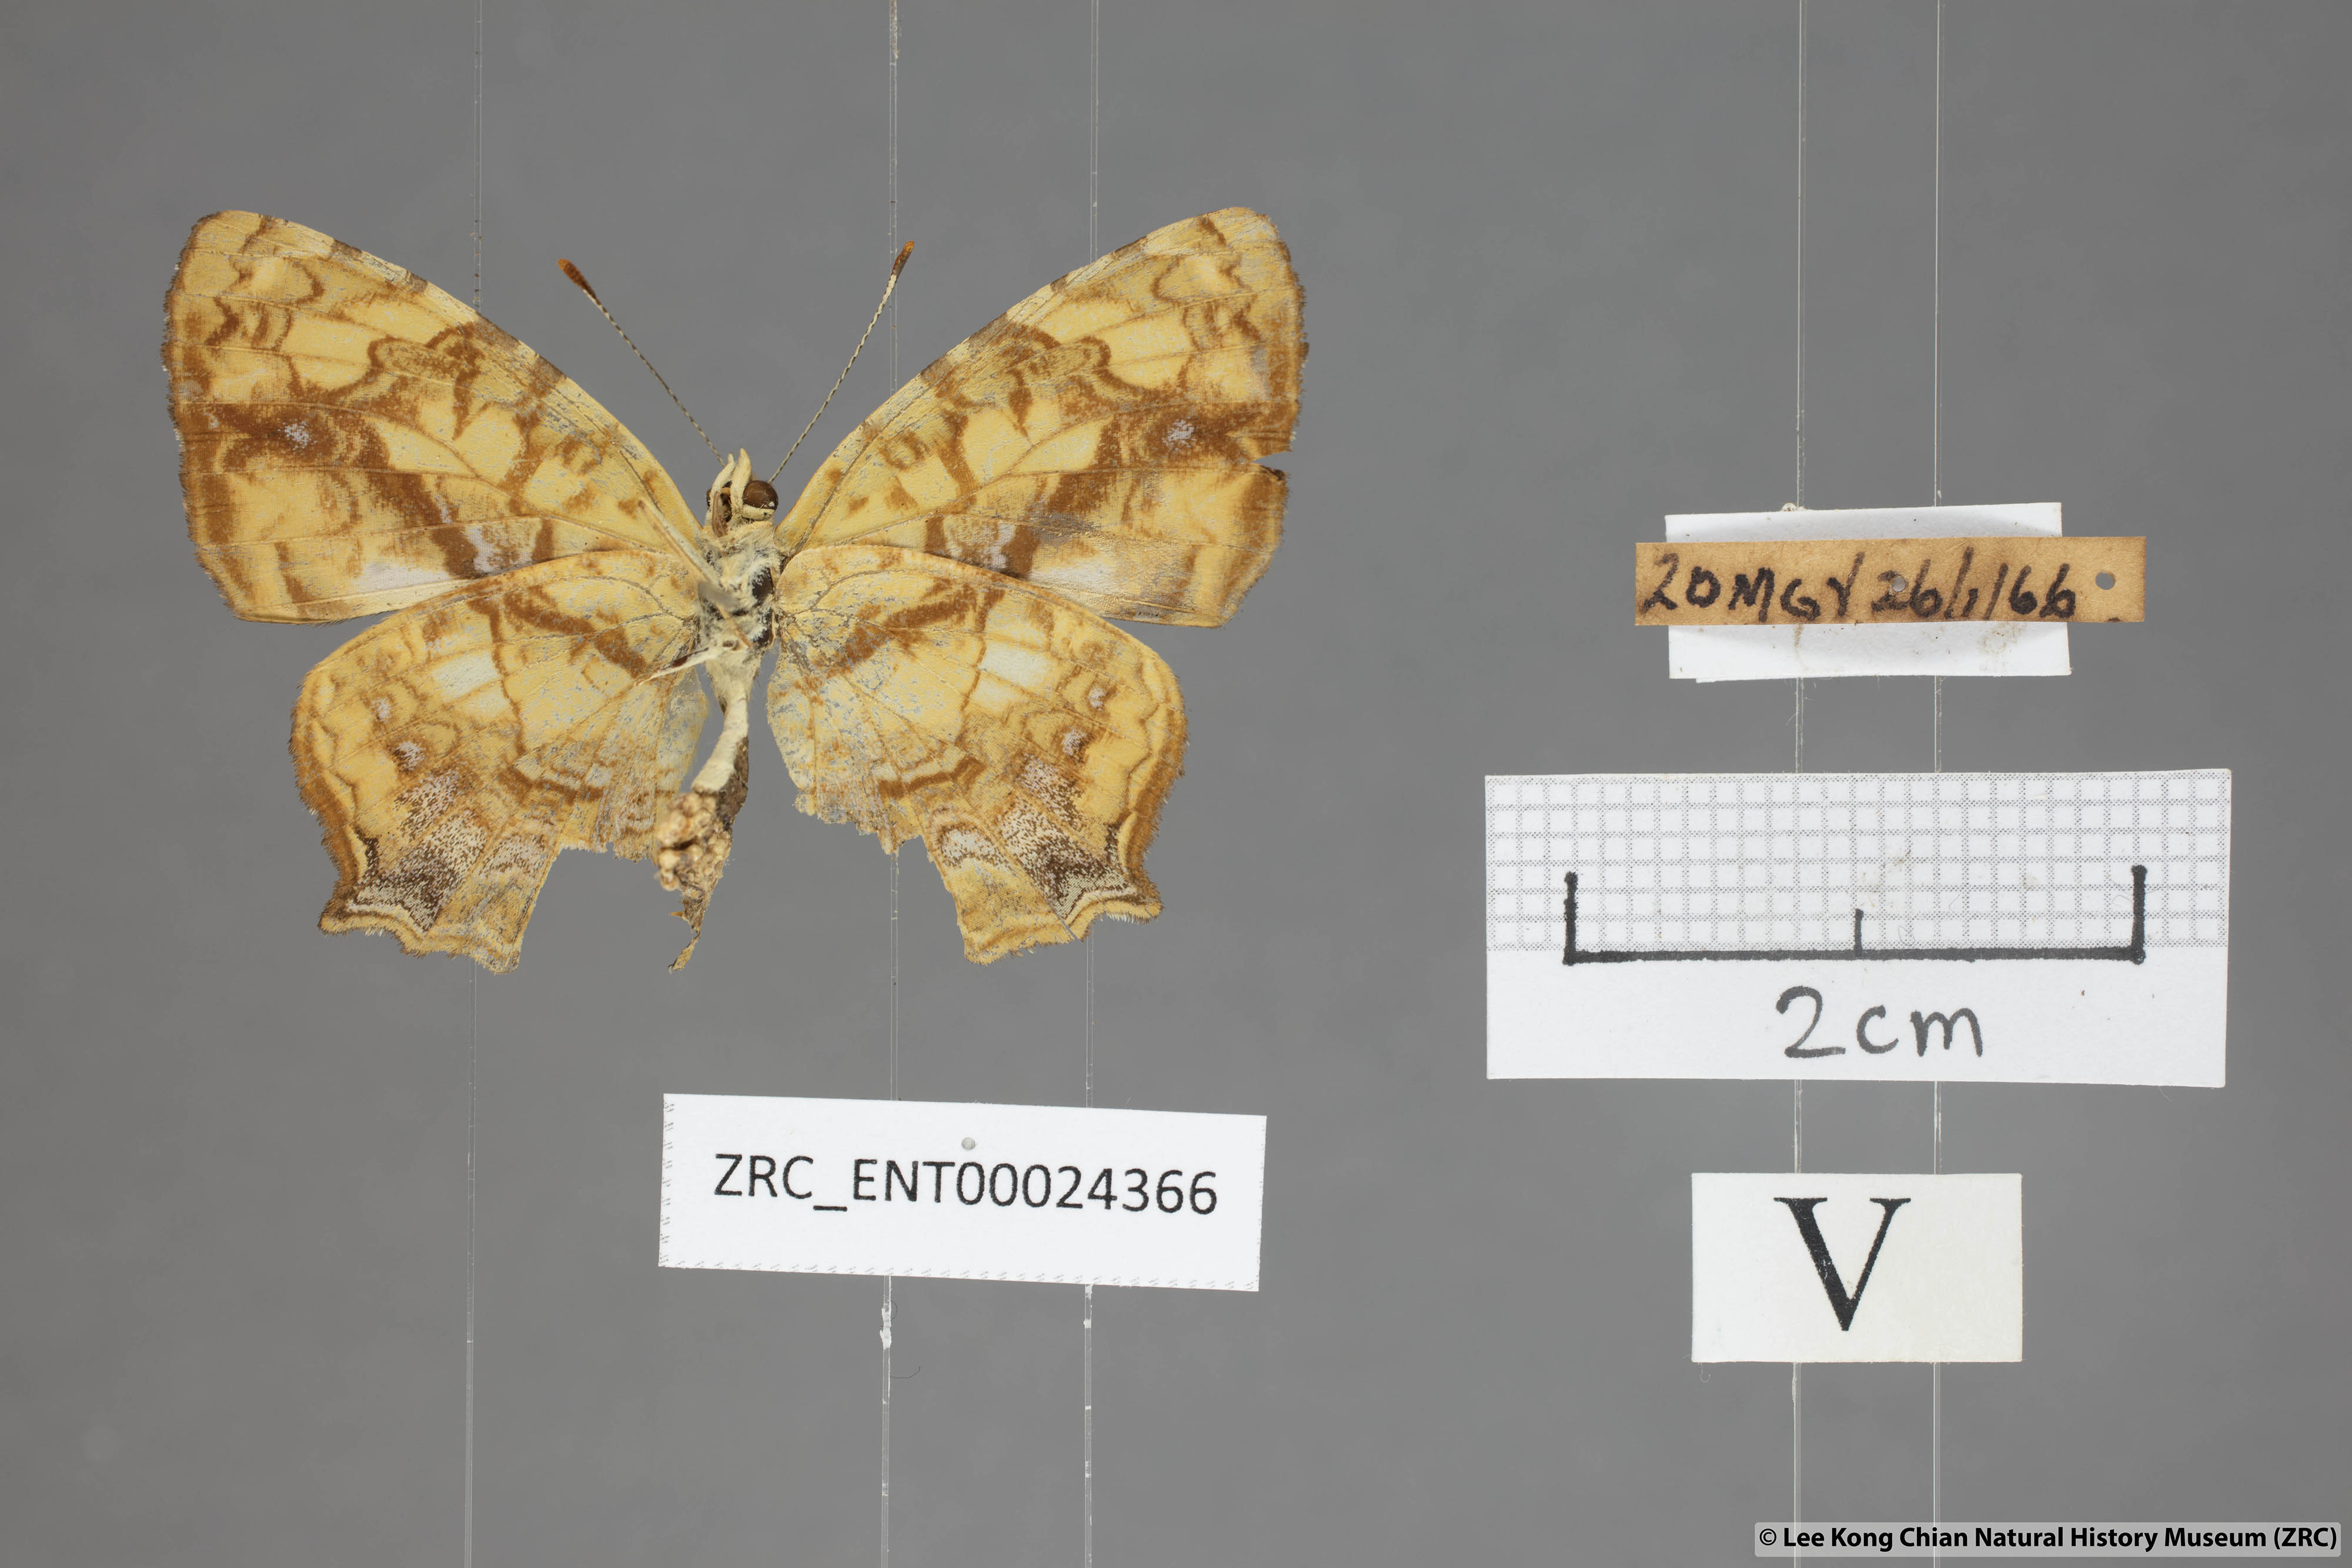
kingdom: Animalia
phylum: Arthropoda
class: Insecta
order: Lepidoptera
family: Nymphalidae
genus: Symbrenthia
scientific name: Symbrenthia hypselis
